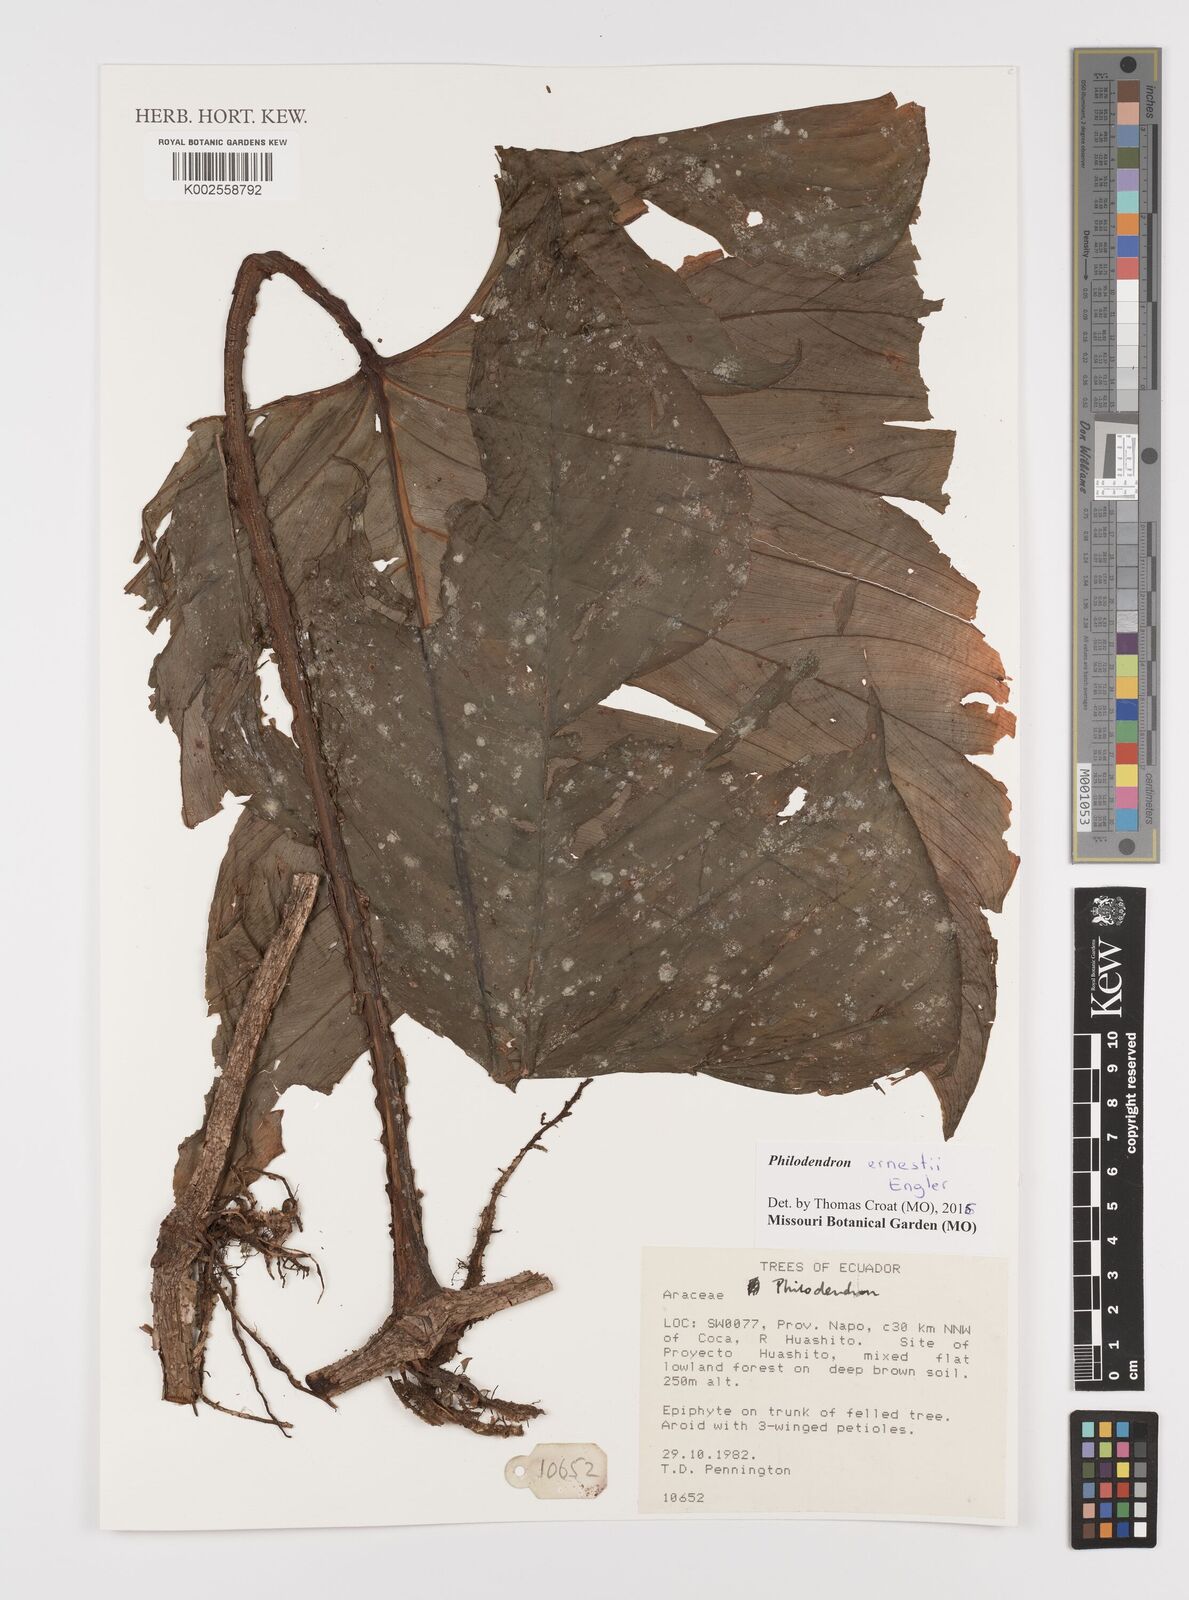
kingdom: Plantae
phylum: Tracheophyta
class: Liliopsida
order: Alismatales
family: Araceae
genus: Philodendron
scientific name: Philodendron ernestii
